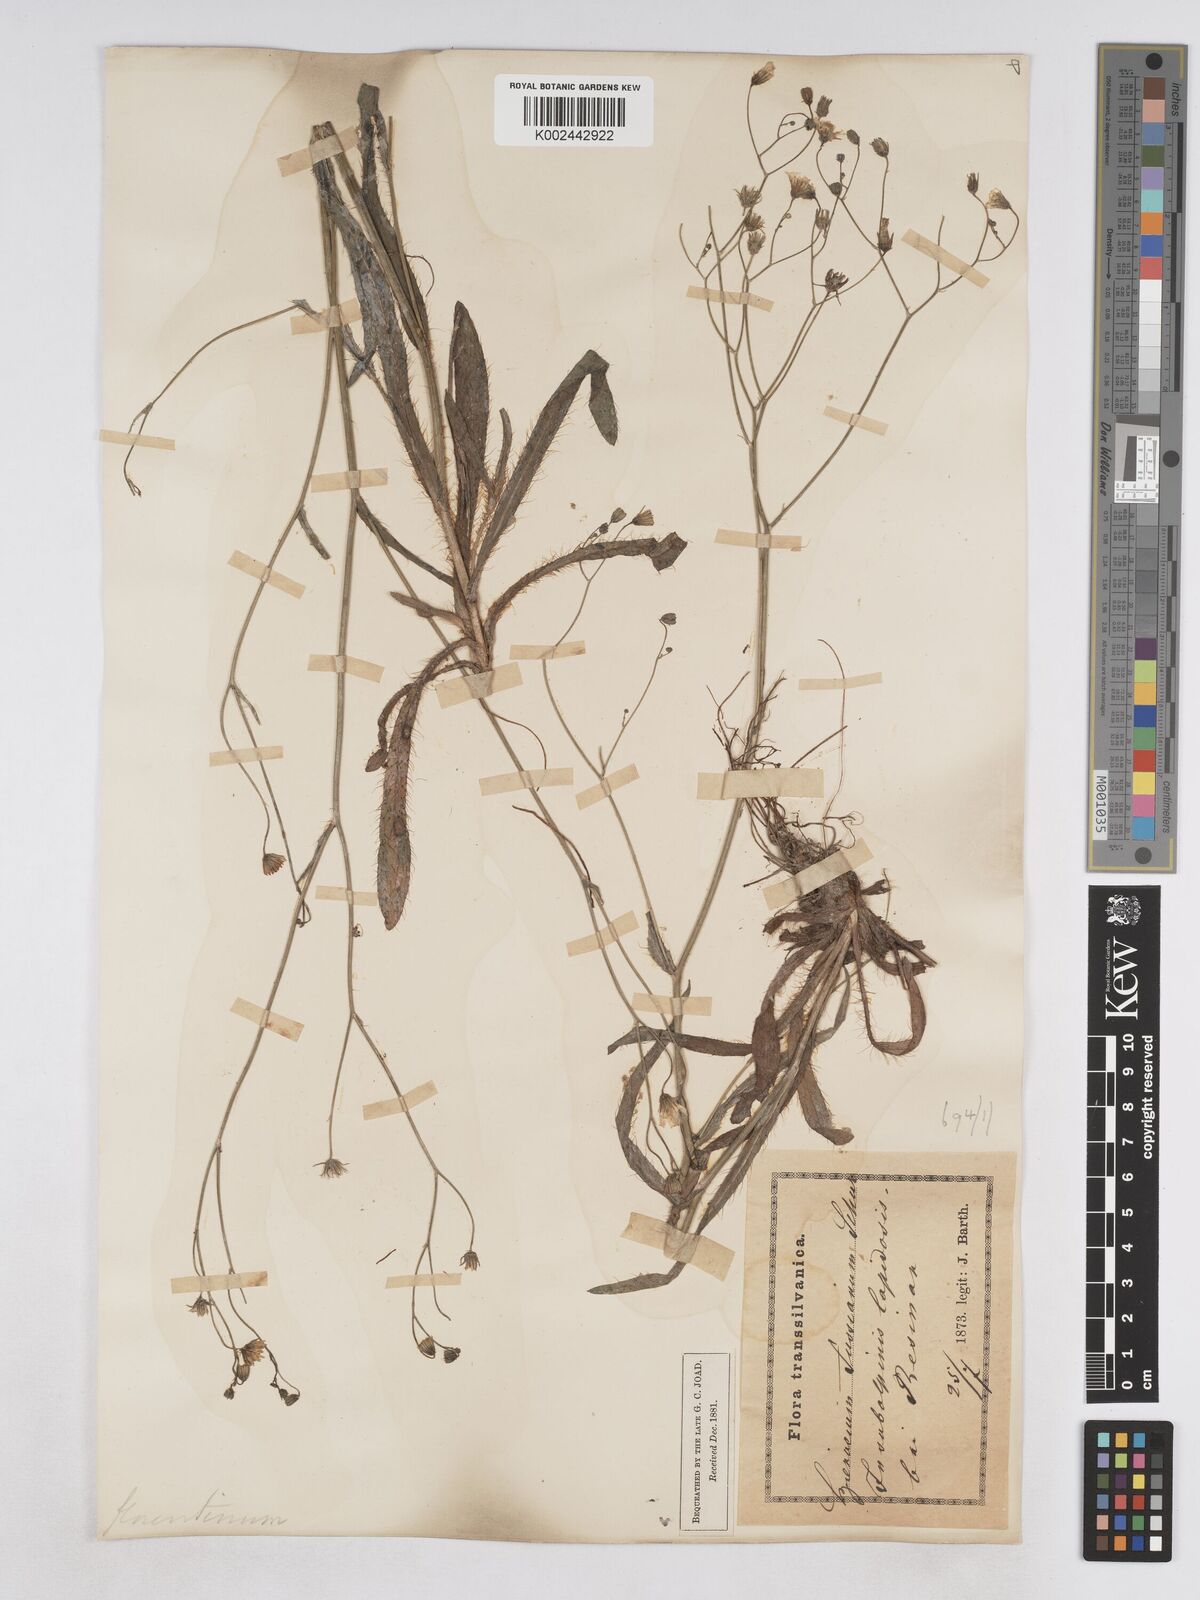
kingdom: Plantae
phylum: Tracheophyta
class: Magnoliopsida
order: Asterales
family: Asteraceae
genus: Pilosella
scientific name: Pilosella pavichii
